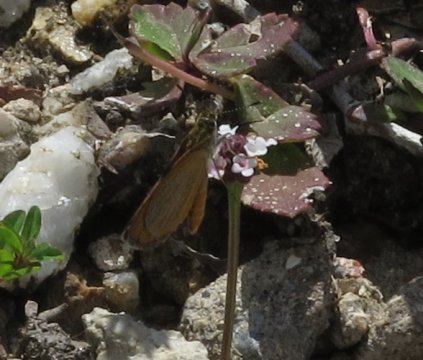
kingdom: Animalia
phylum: Arthropoda
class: Insecta
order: Lepidoptera
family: Hesperiidae
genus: Copaeodes
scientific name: Copaeodes minima
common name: Southern Skipperling
